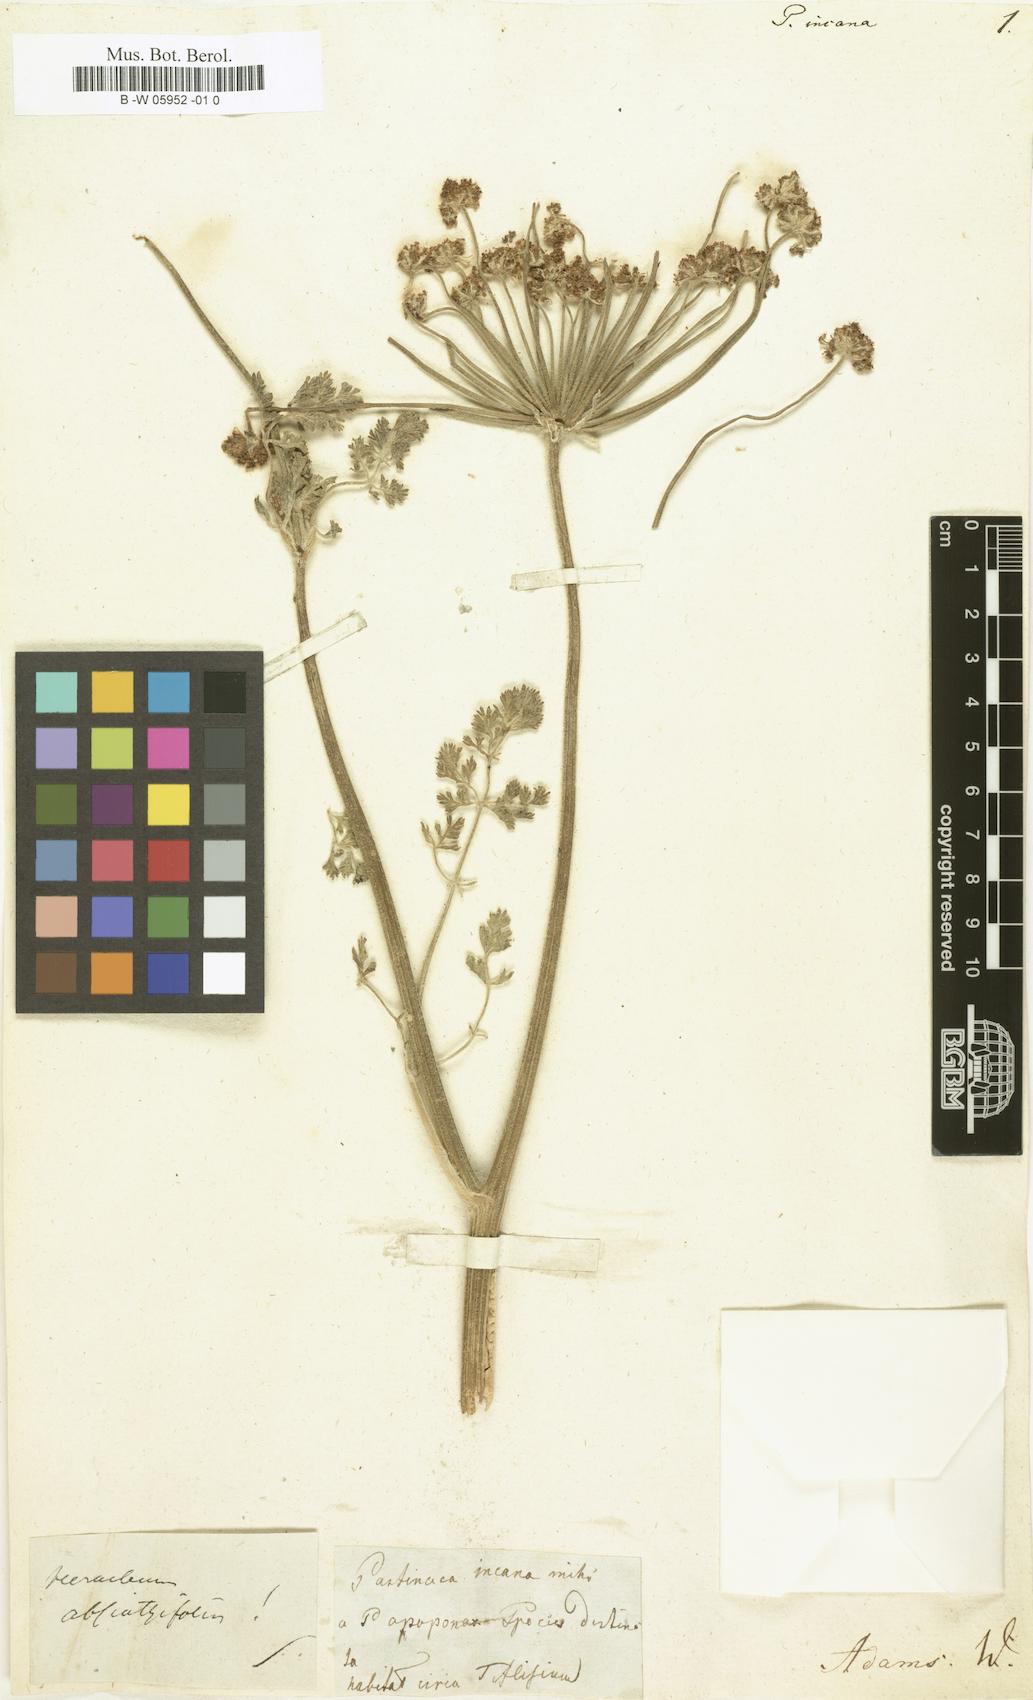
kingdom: Plantae
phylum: Tracheophyta
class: Magnoliopsida
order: Apiales
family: Apiaceae
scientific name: Apiaceae
